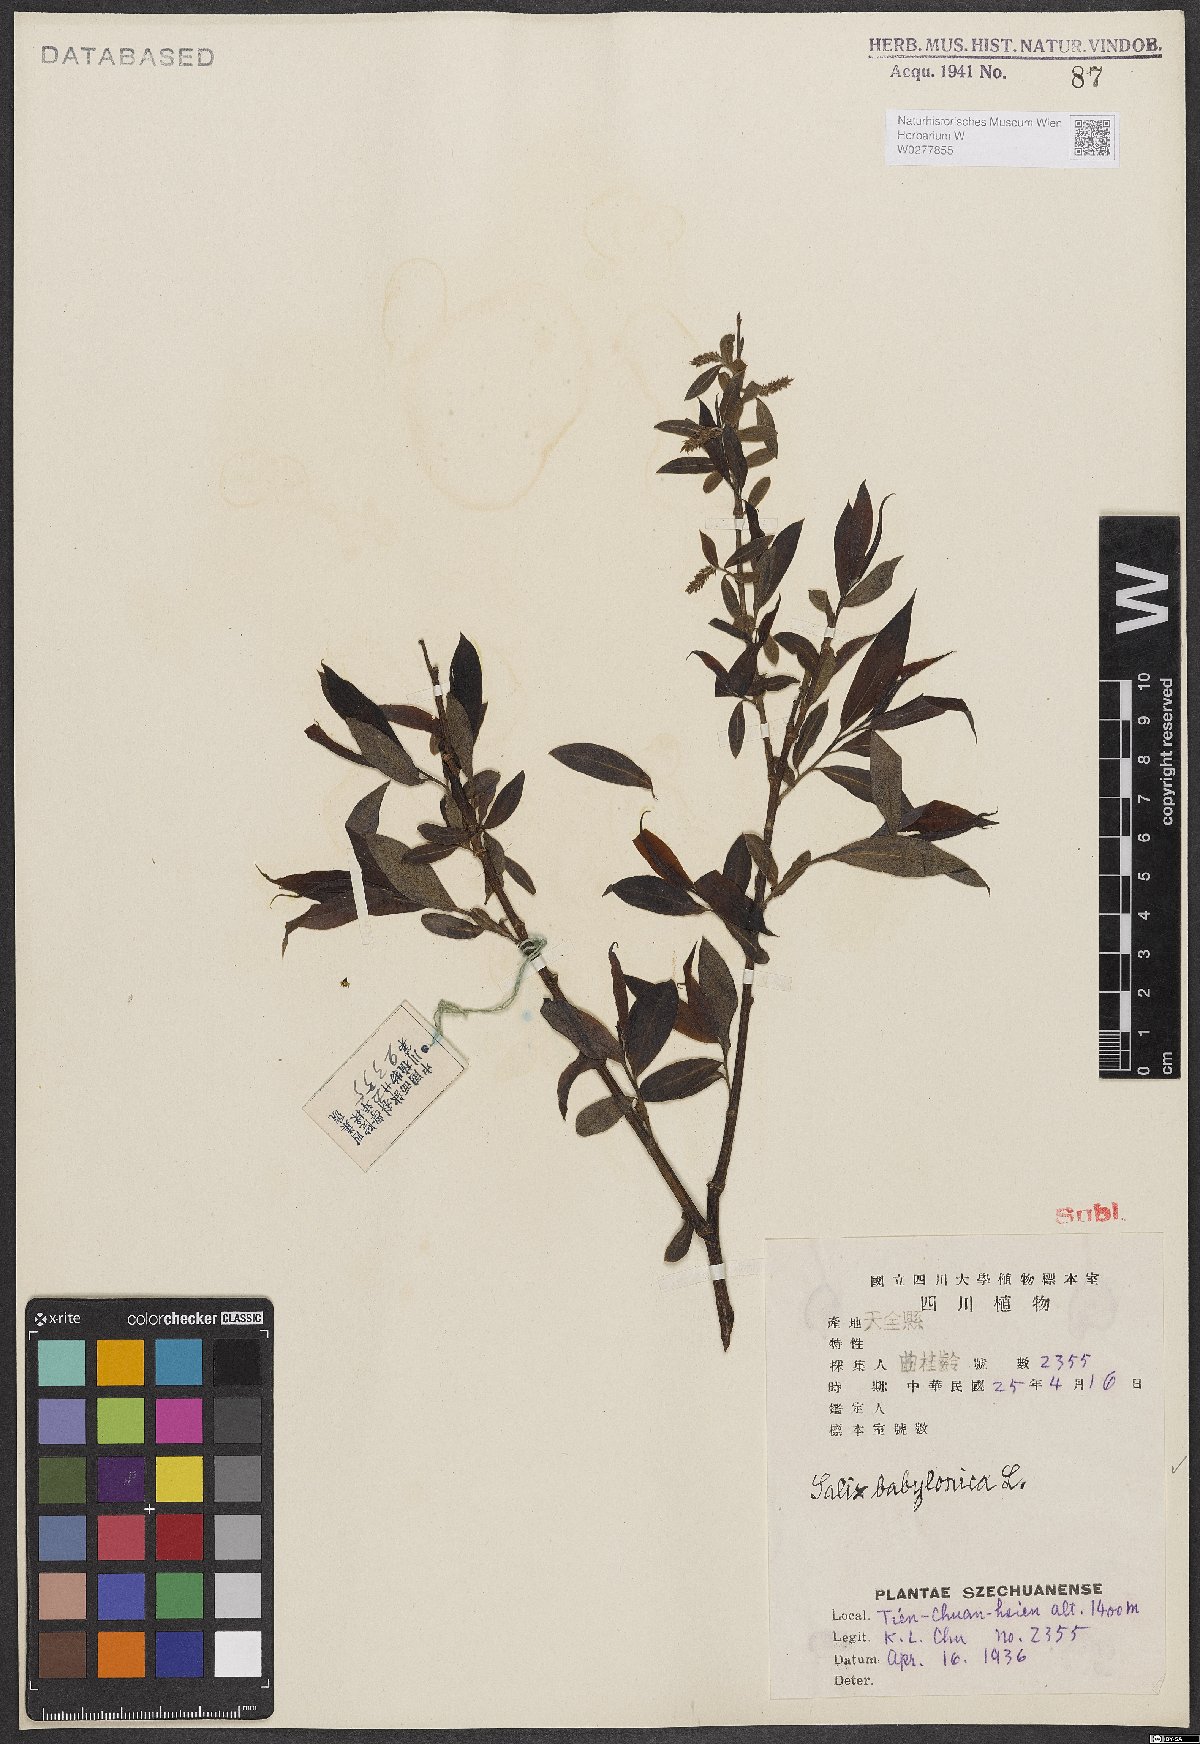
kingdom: Plantae
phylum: Tracheophyta
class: Magnoliopsida
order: Malpighiales
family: Salicaceae
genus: Salix
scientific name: Salix babylonica
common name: Weeping willow
